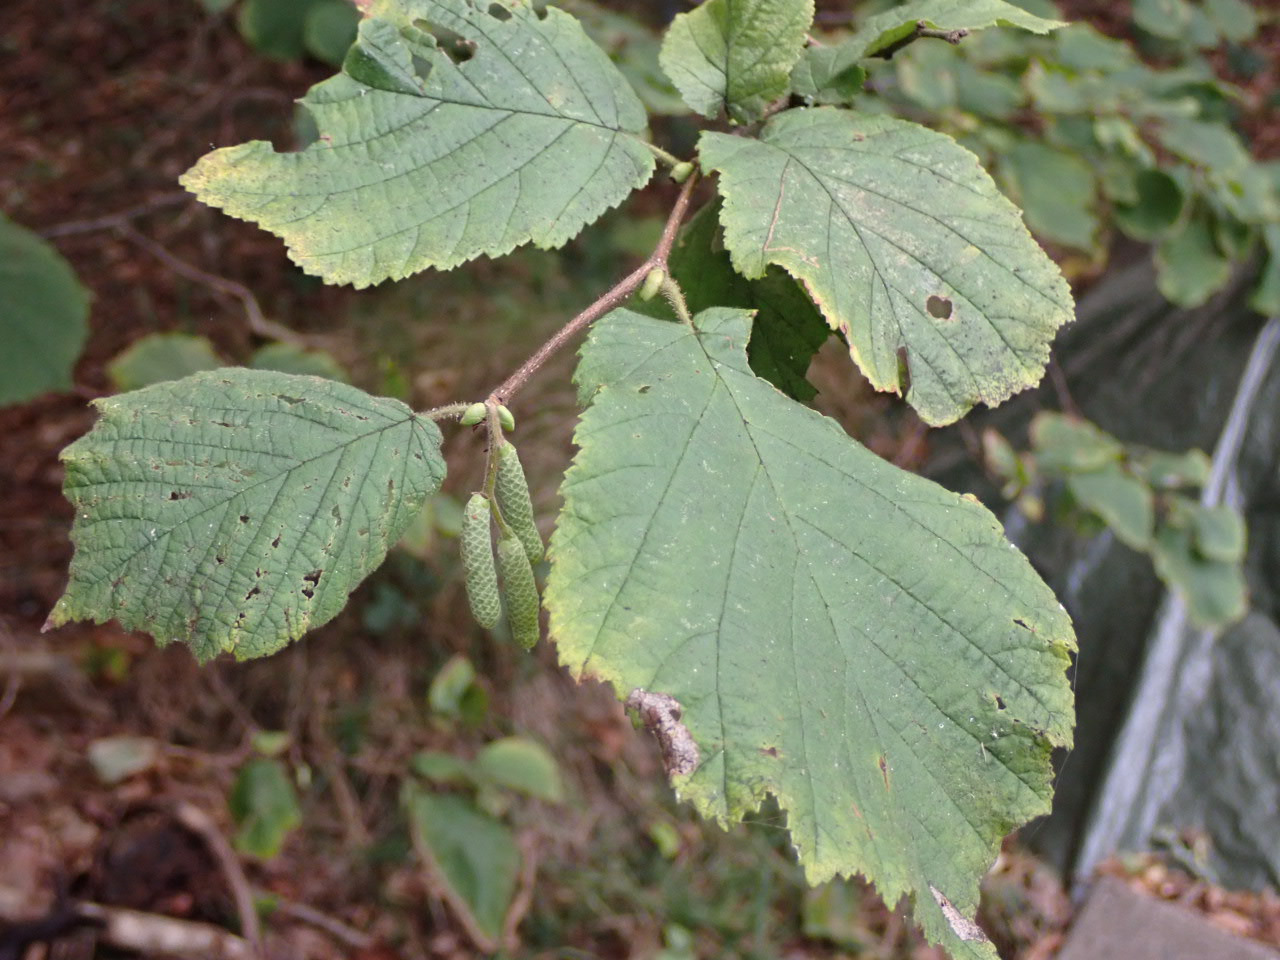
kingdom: Plantae
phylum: Tracheophyta
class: Magnoliopsida
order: Fagales
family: Betulaceae
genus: Corylus
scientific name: Corylus avellana
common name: Hassel
